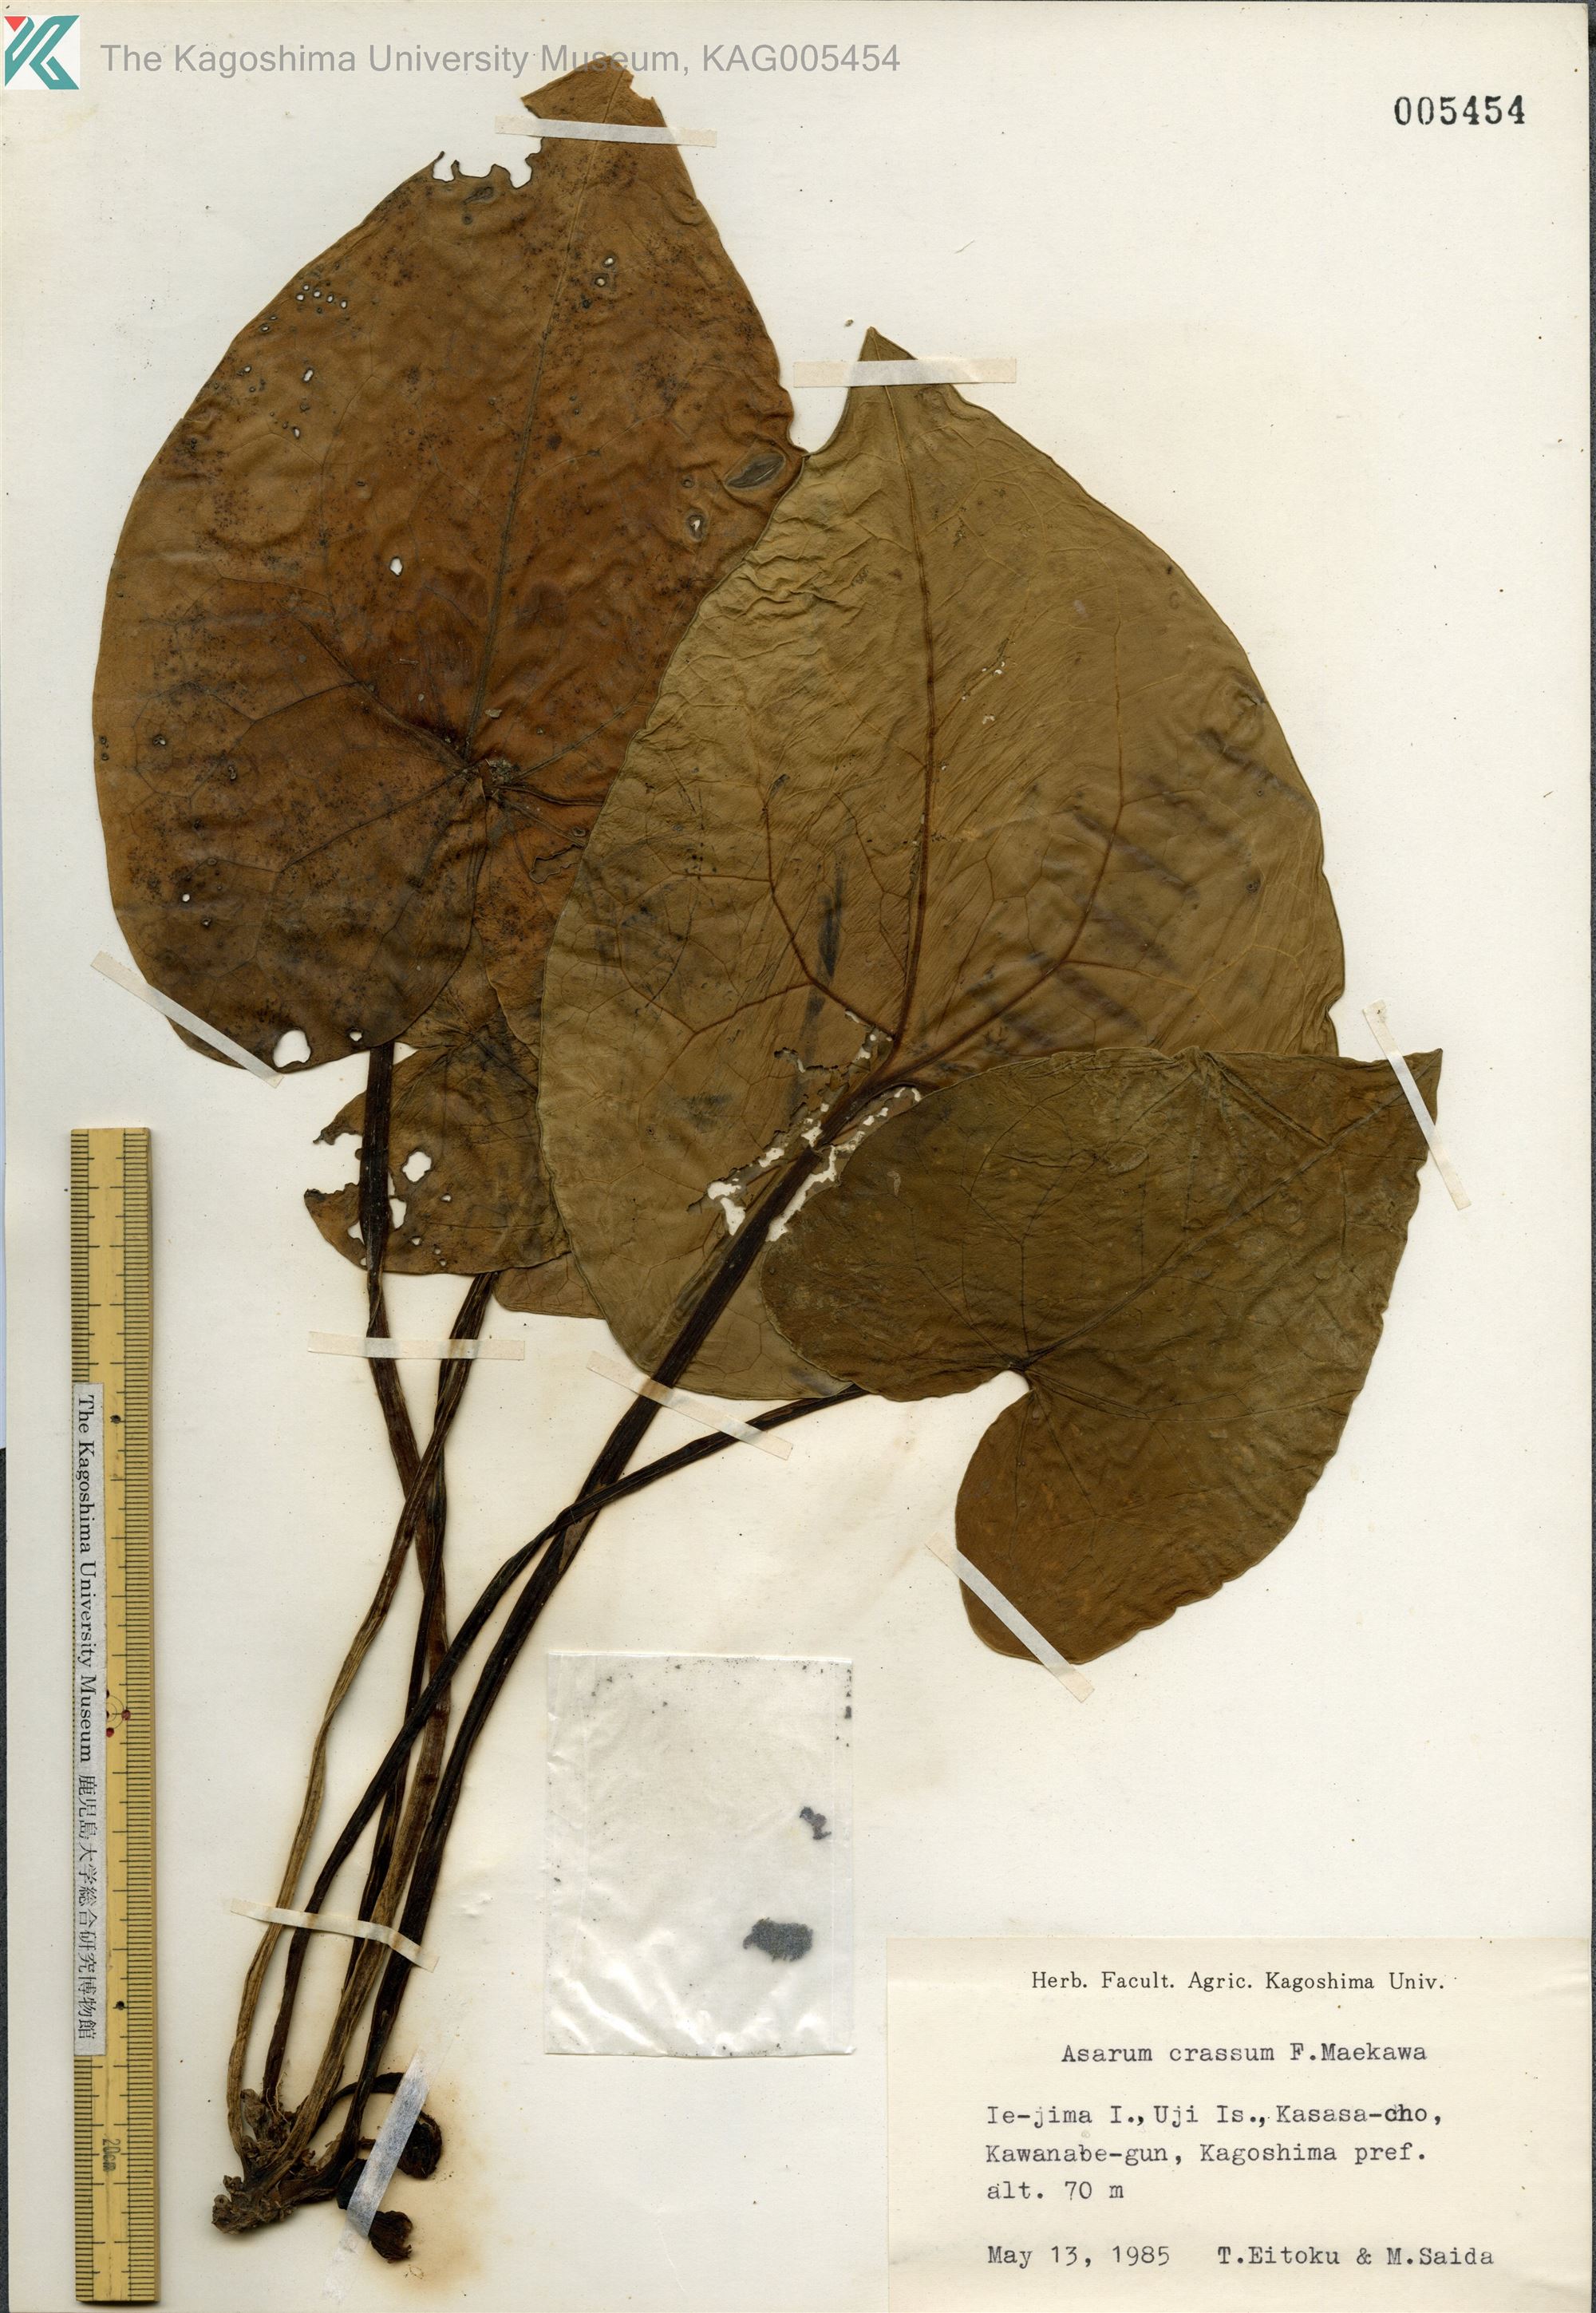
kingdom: Plantae
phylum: Tracheophyta
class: Magnoliopsida
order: Piperales
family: Aristolochiaceae
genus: Asarum
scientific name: Asarum crassum
